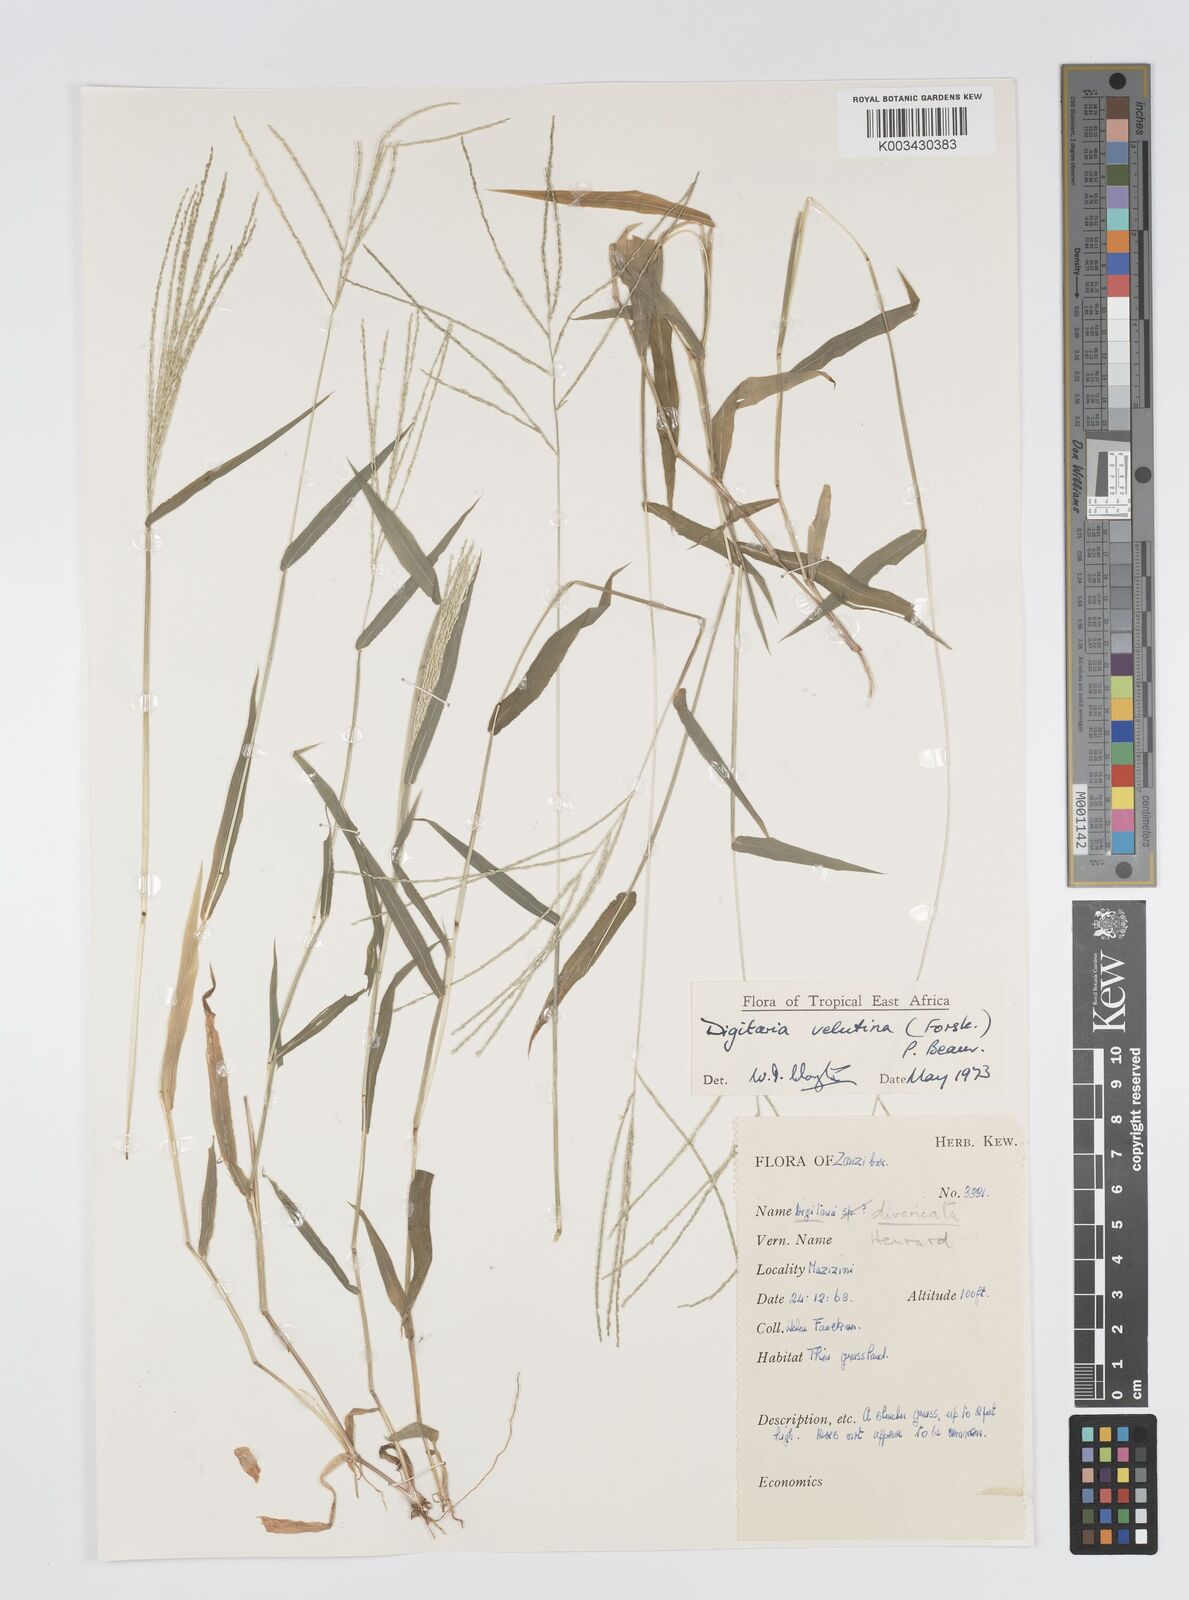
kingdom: Plantae
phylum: Tracheophyta
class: Liliopsida
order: Poales
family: Poaceae
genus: Digitaria
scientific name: Digitaria velutina
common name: Long-plume finger grass
